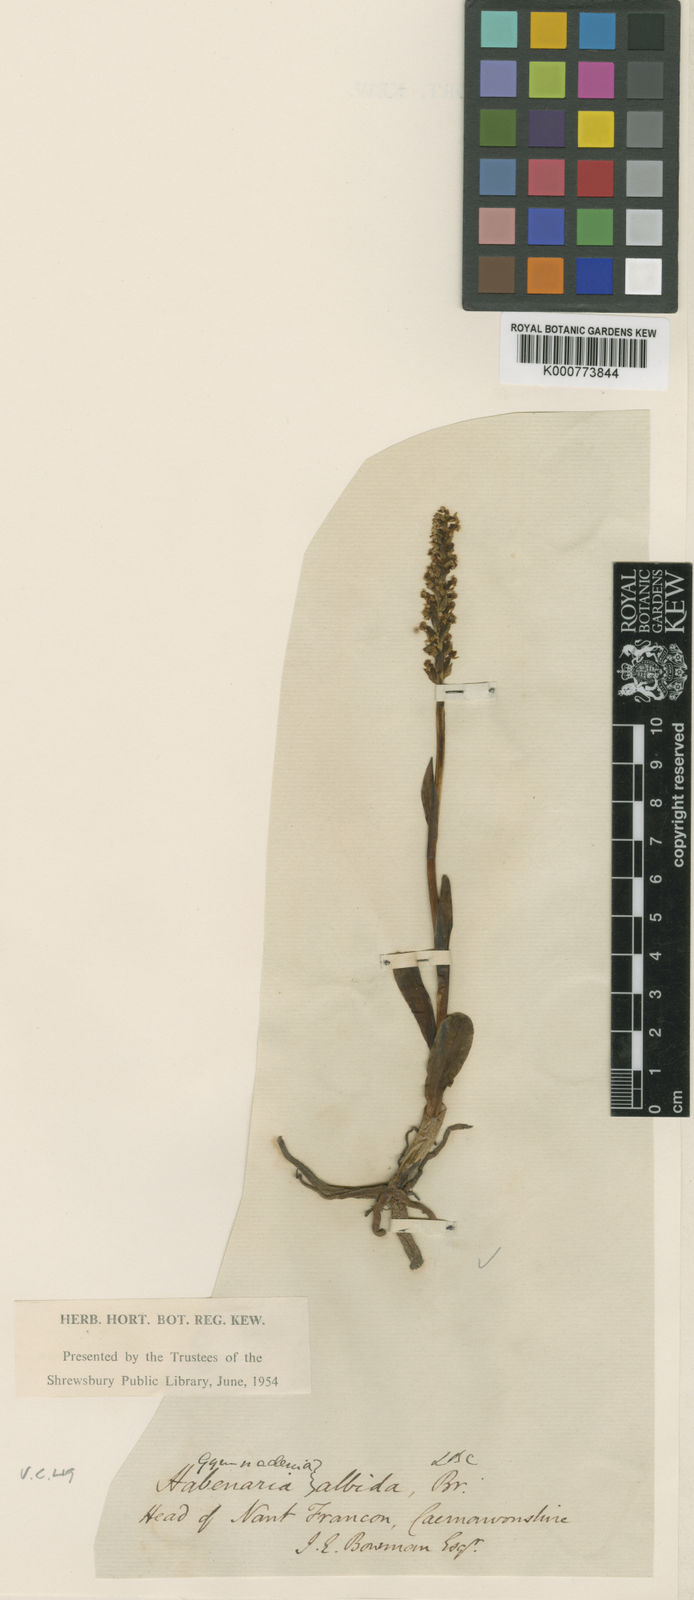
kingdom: Plantae
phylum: Tracheophyta
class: Liliopsida
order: Asparagales
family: Orchidaceae
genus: Pseudorchis
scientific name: Pseudorchis
